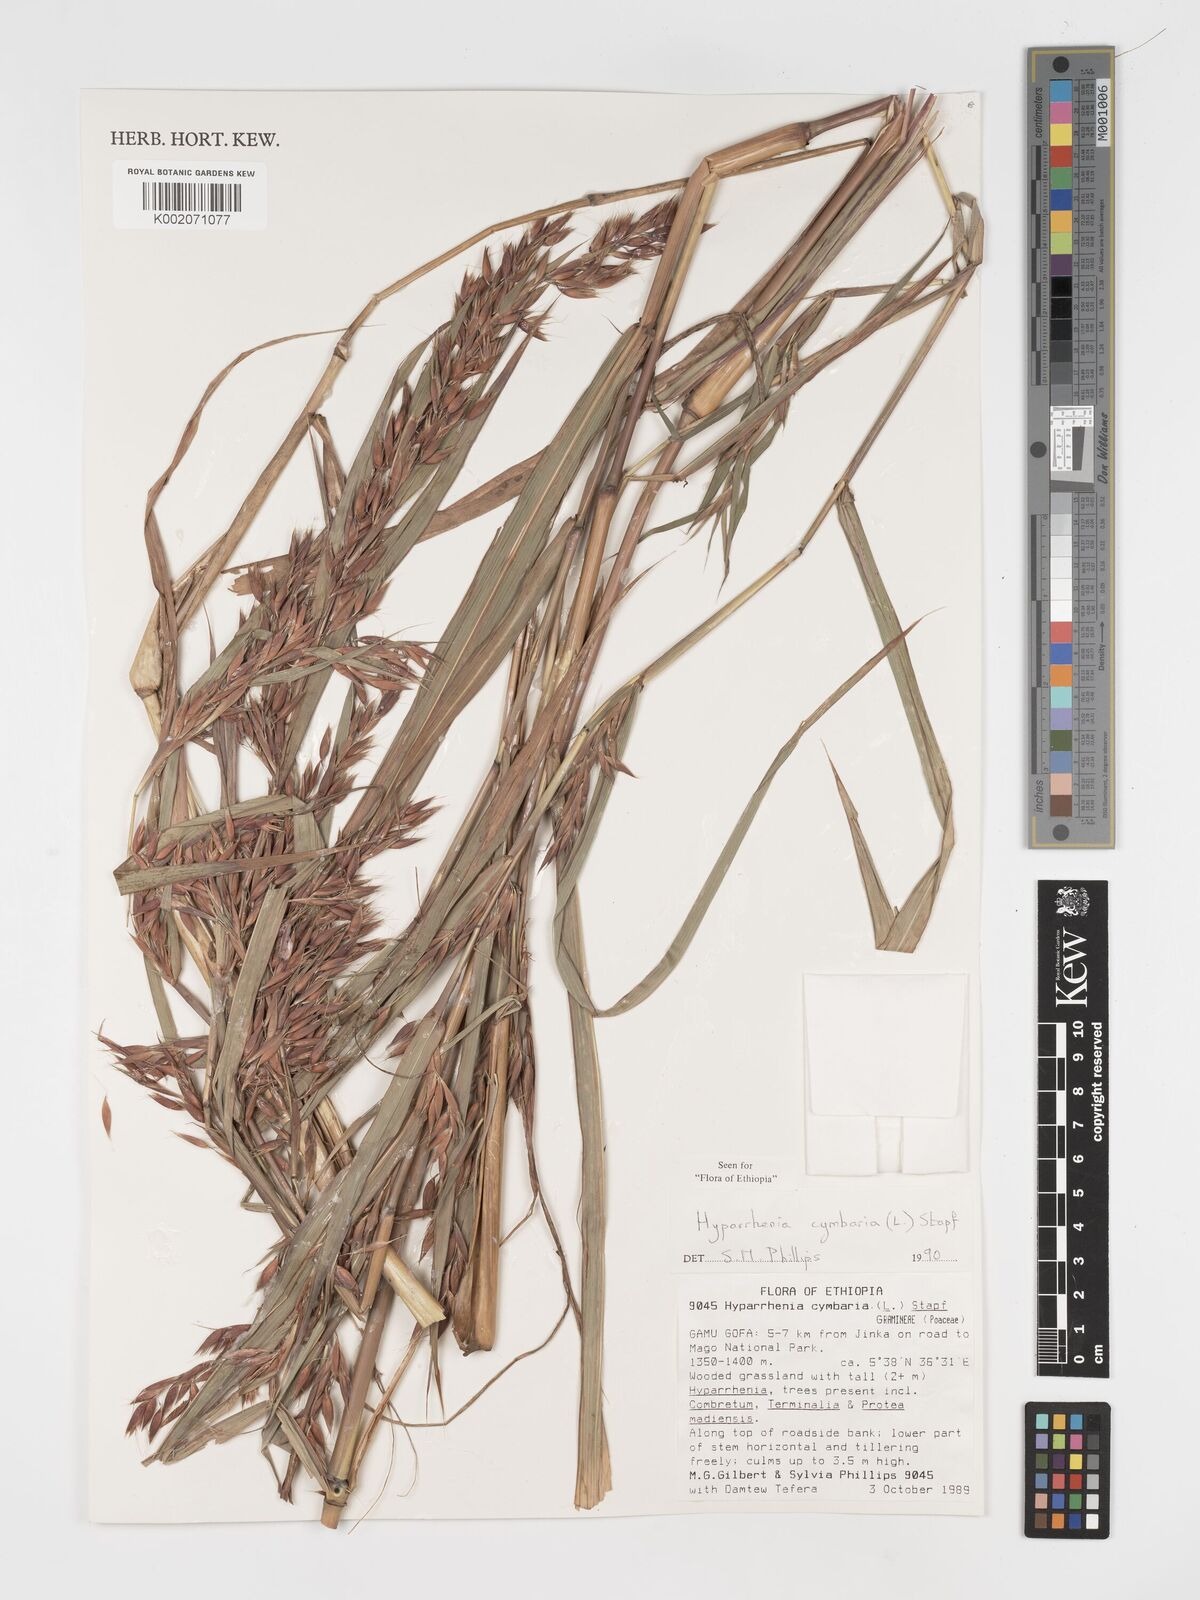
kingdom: Plantae
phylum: Tracheophyta
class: Liliopsida
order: Poales
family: Poaceae
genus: Hyparrhenia
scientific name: Hyparrhenia cymbaria
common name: Boat thatching grass
